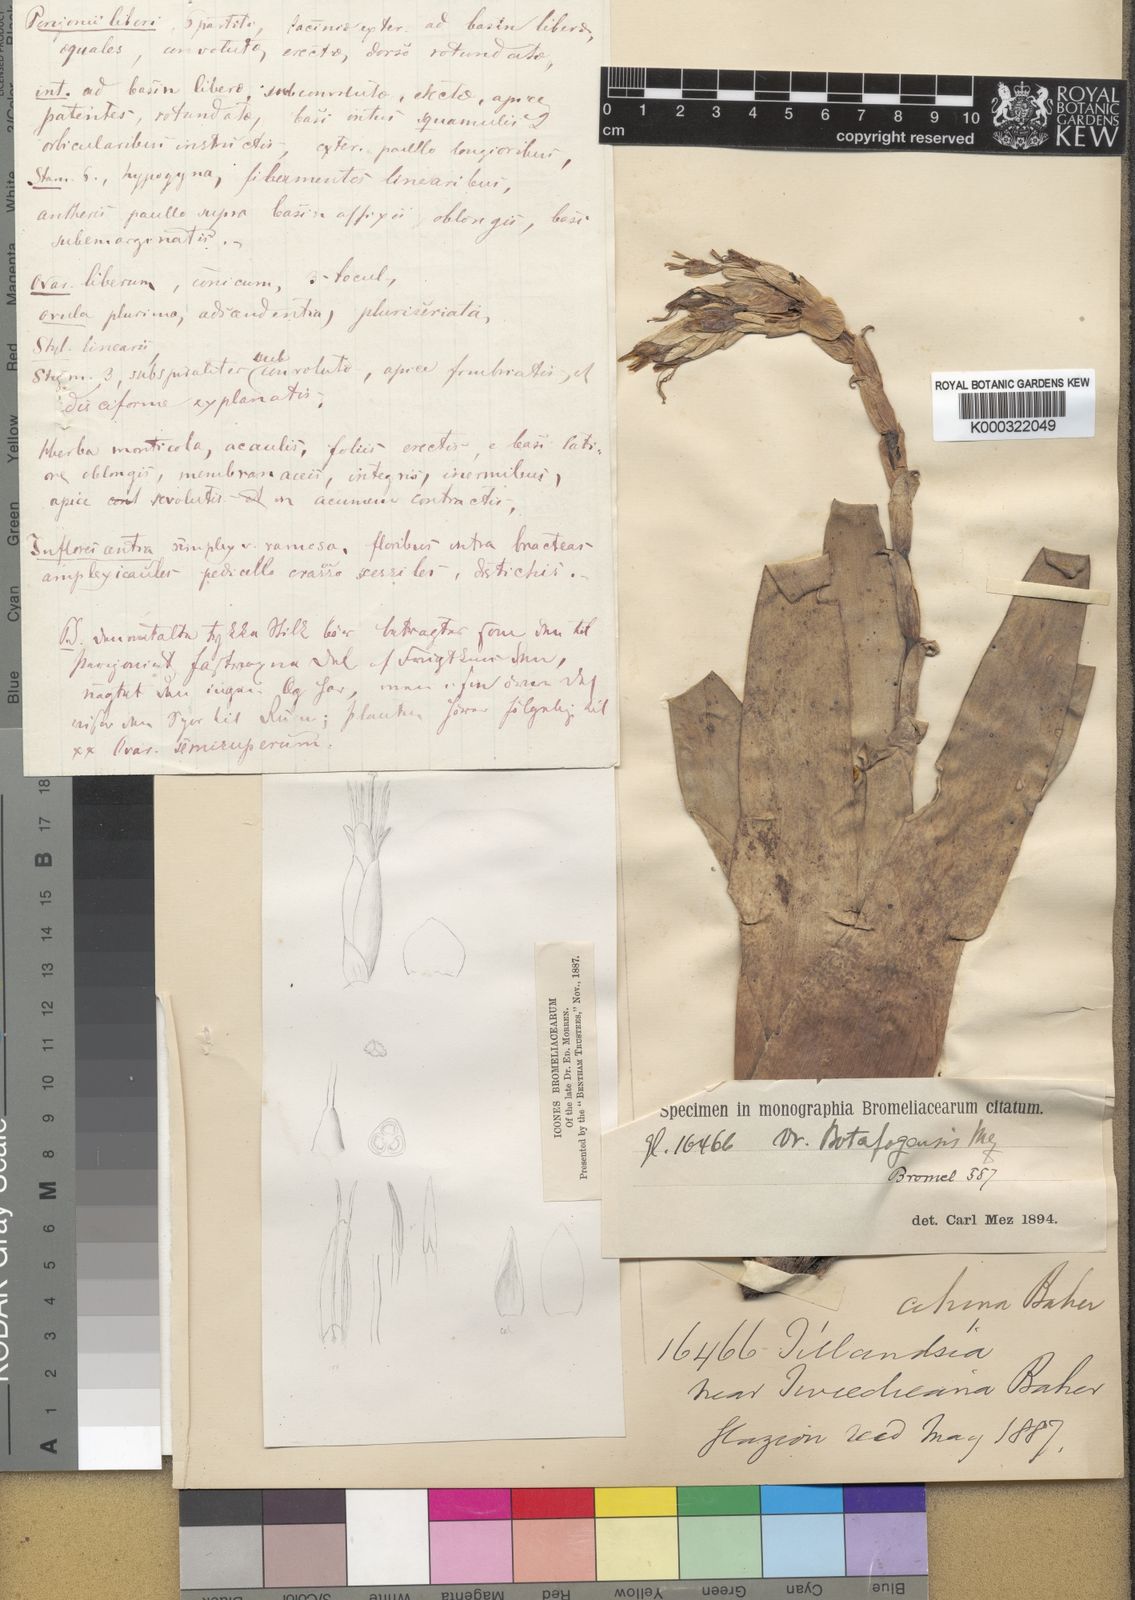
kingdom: Plantae
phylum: Tracheophyta
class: Liliopsida
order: Poales
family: Bromeliaceae
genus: Vriesea
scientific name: Vriesea
